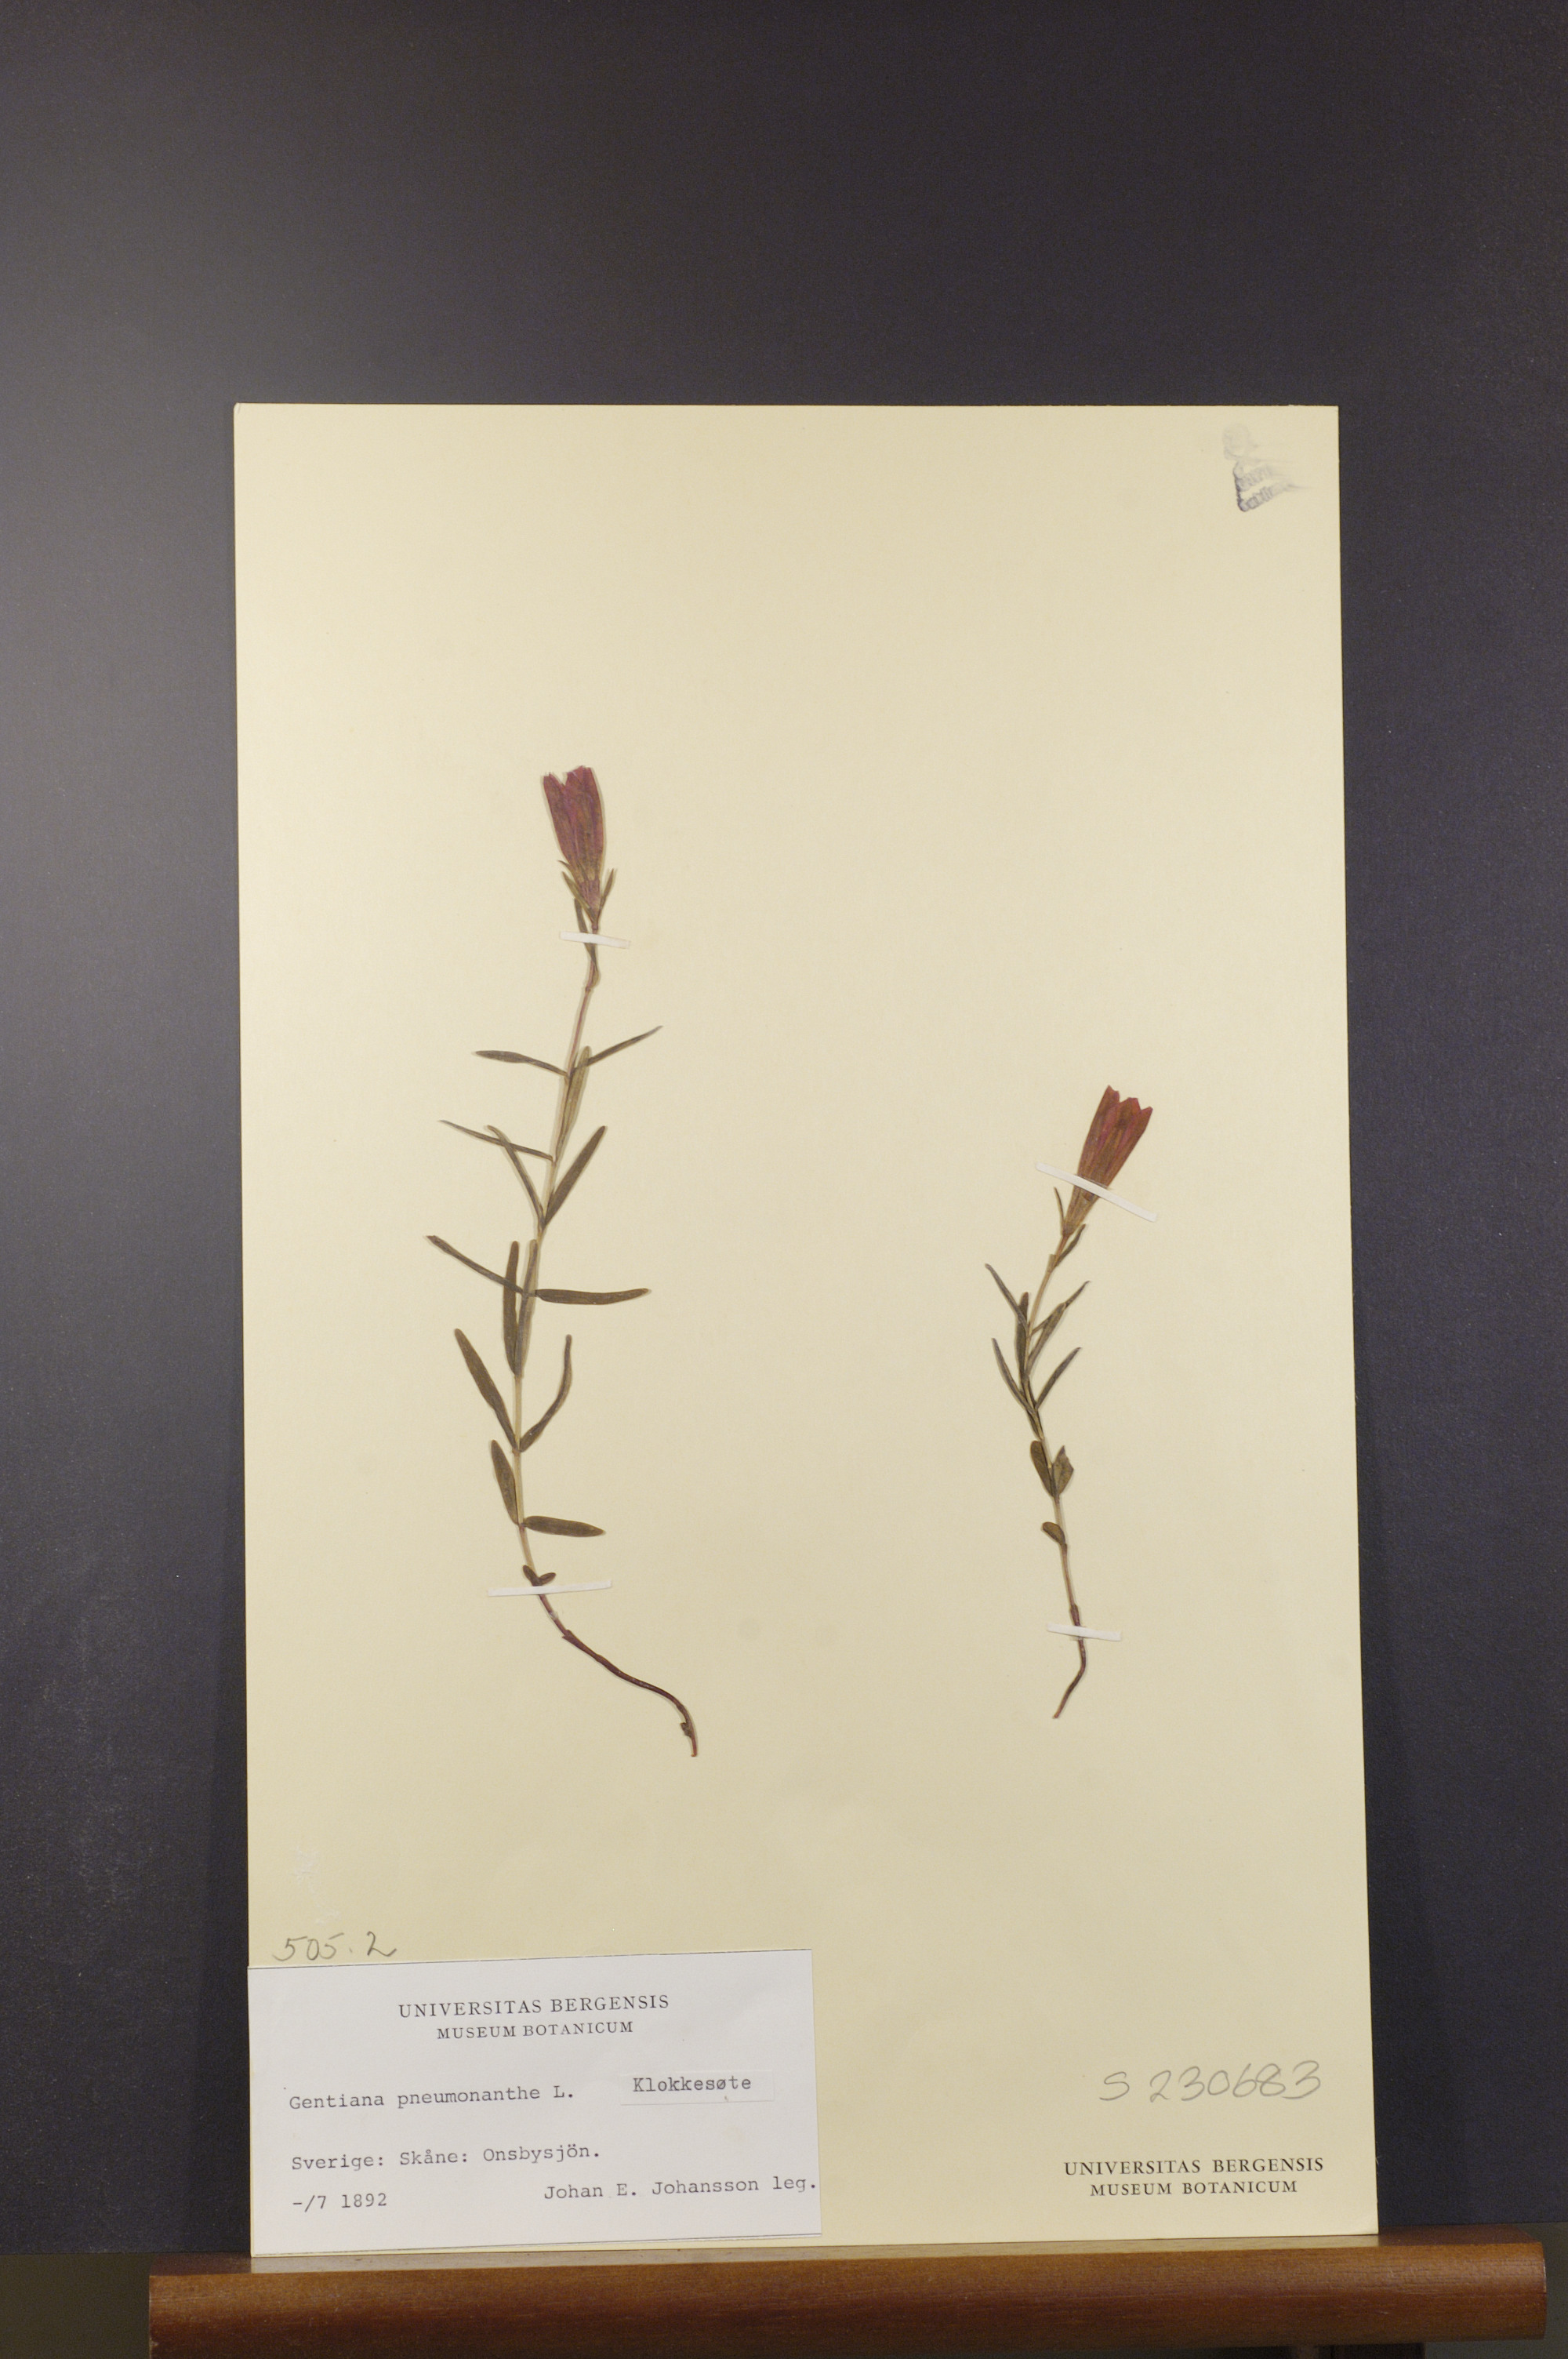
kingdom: Plantae
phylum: Tracheophyta
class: Magnoliopsida
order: Gentianales
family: Gentianaceae
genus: Gentiana
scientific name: Gentiana pneumonanthe
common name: Marsh gentian
